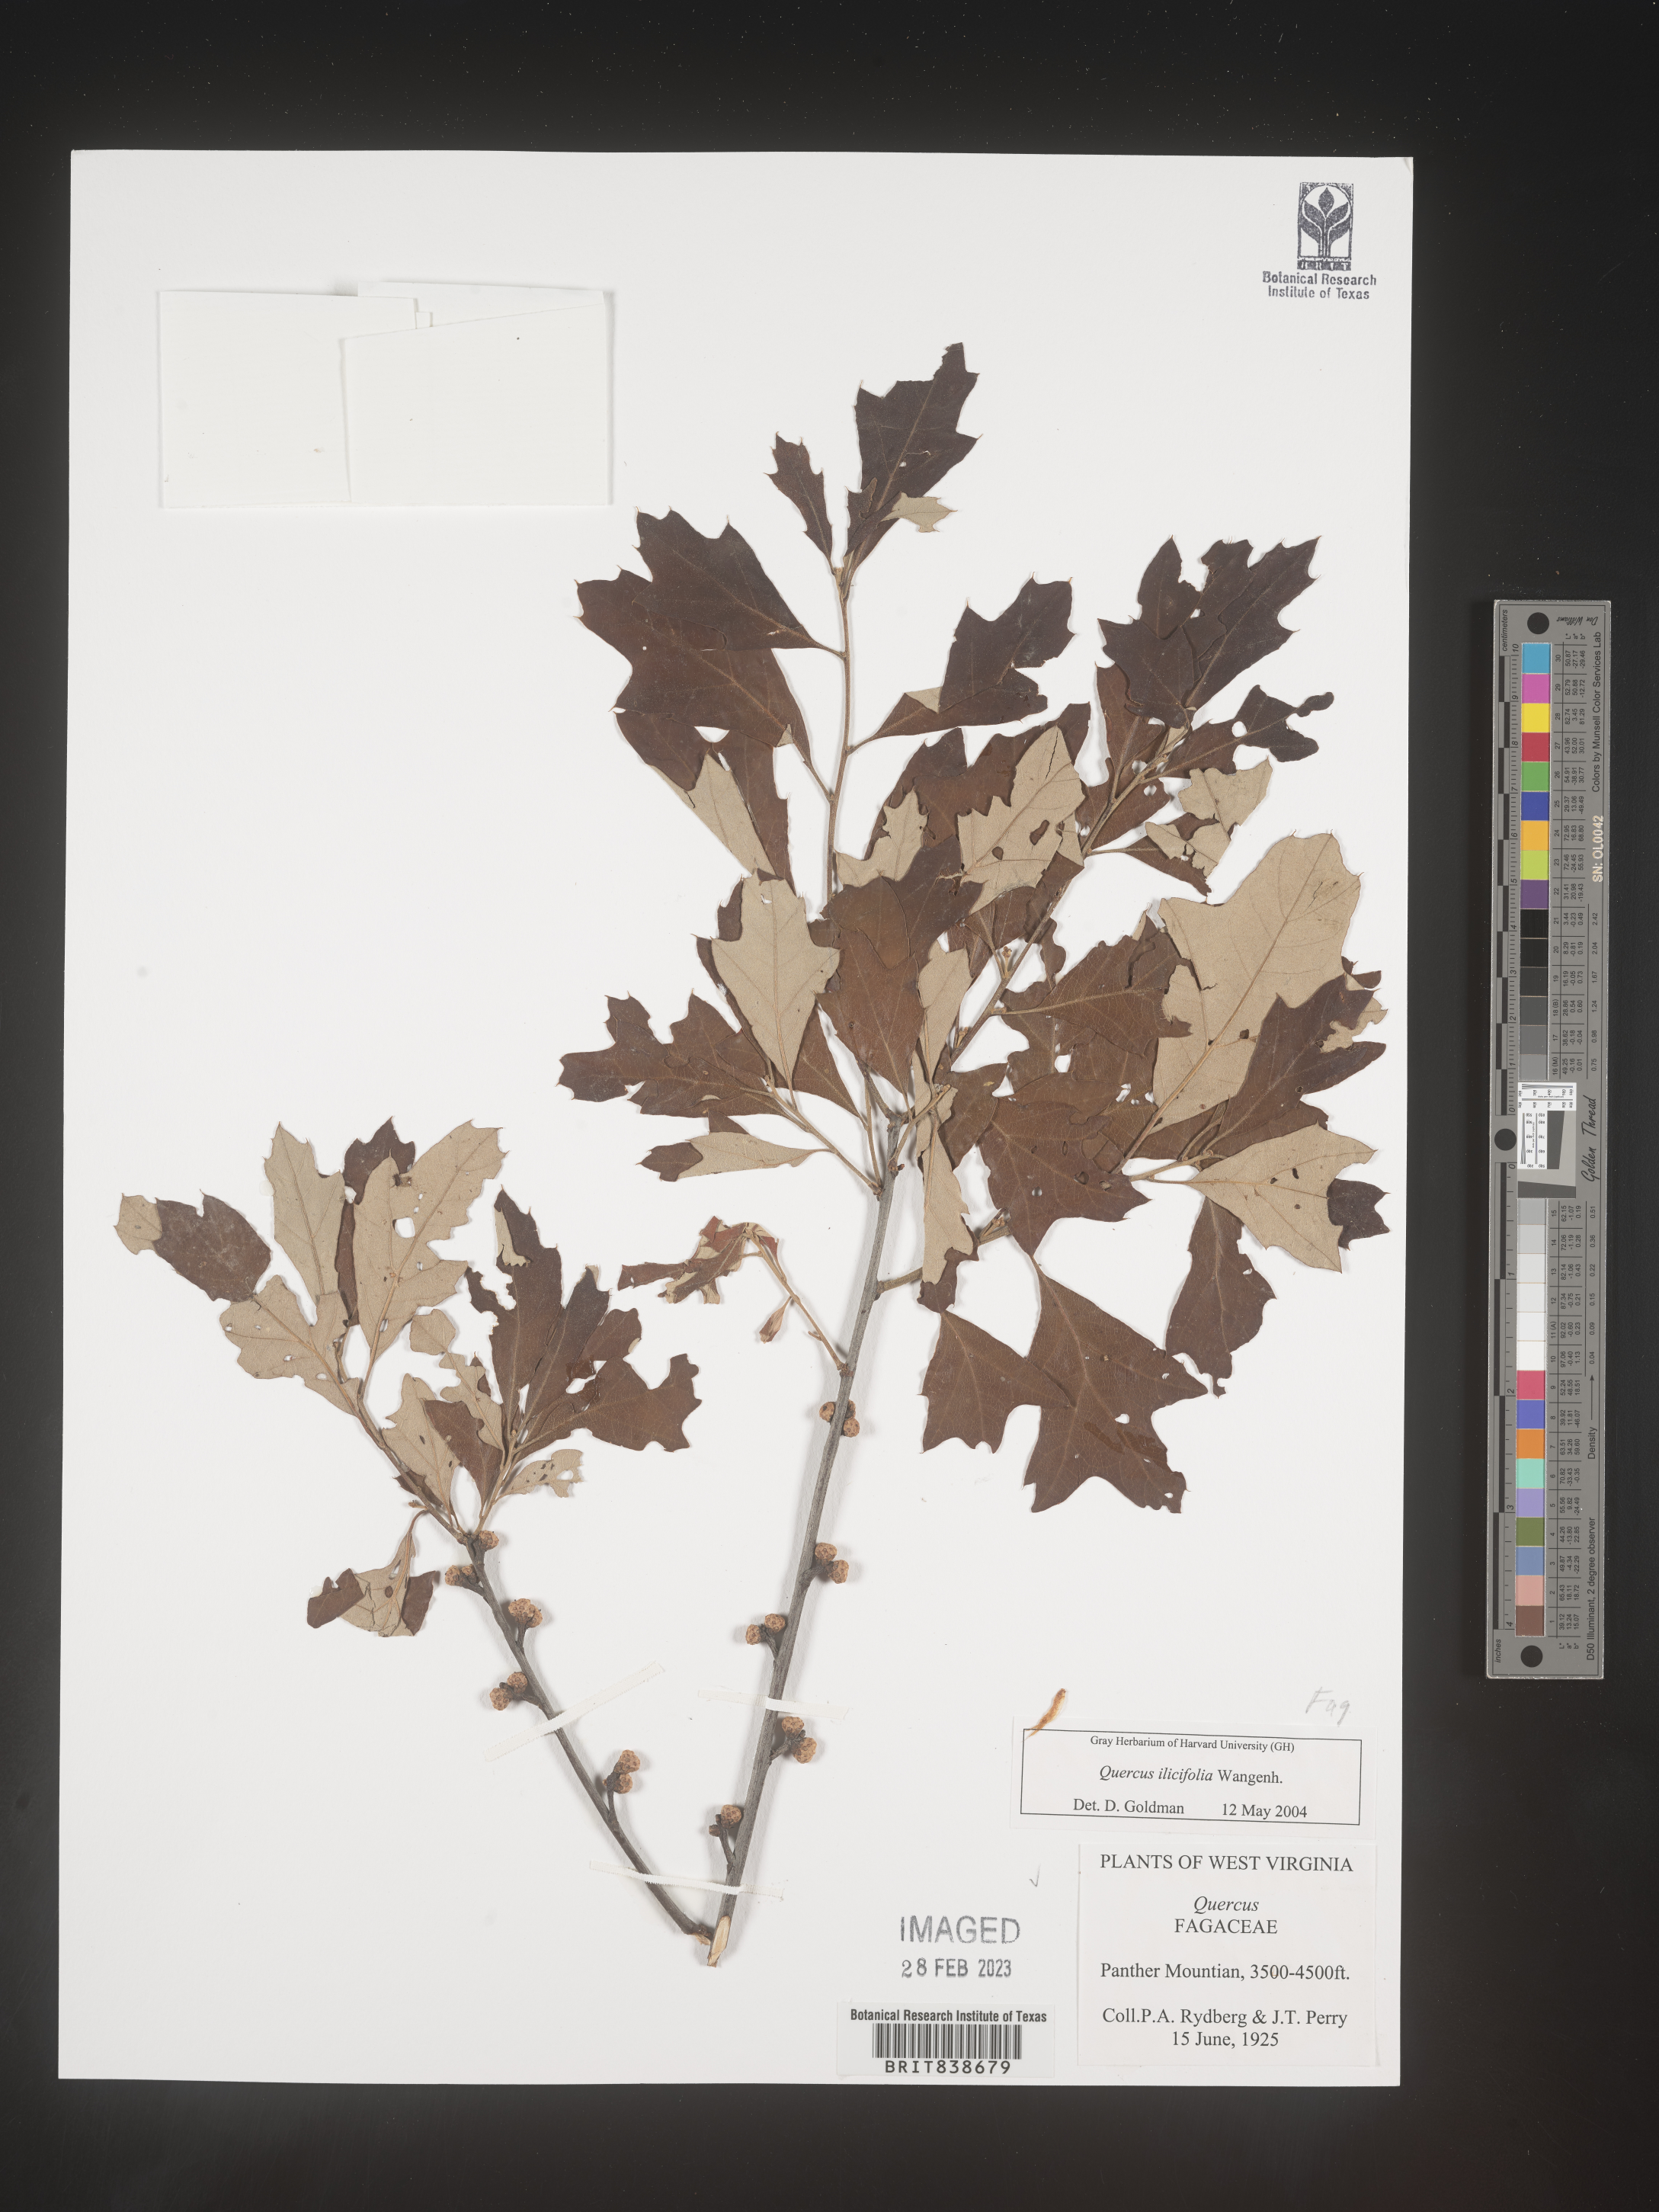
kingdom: Plantae
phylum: Tracheophyta
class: Magnoliopsida
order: Fagales
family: Fagaceae
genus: Quercus
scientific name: Quercus ilicifolia
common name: Bear oak
